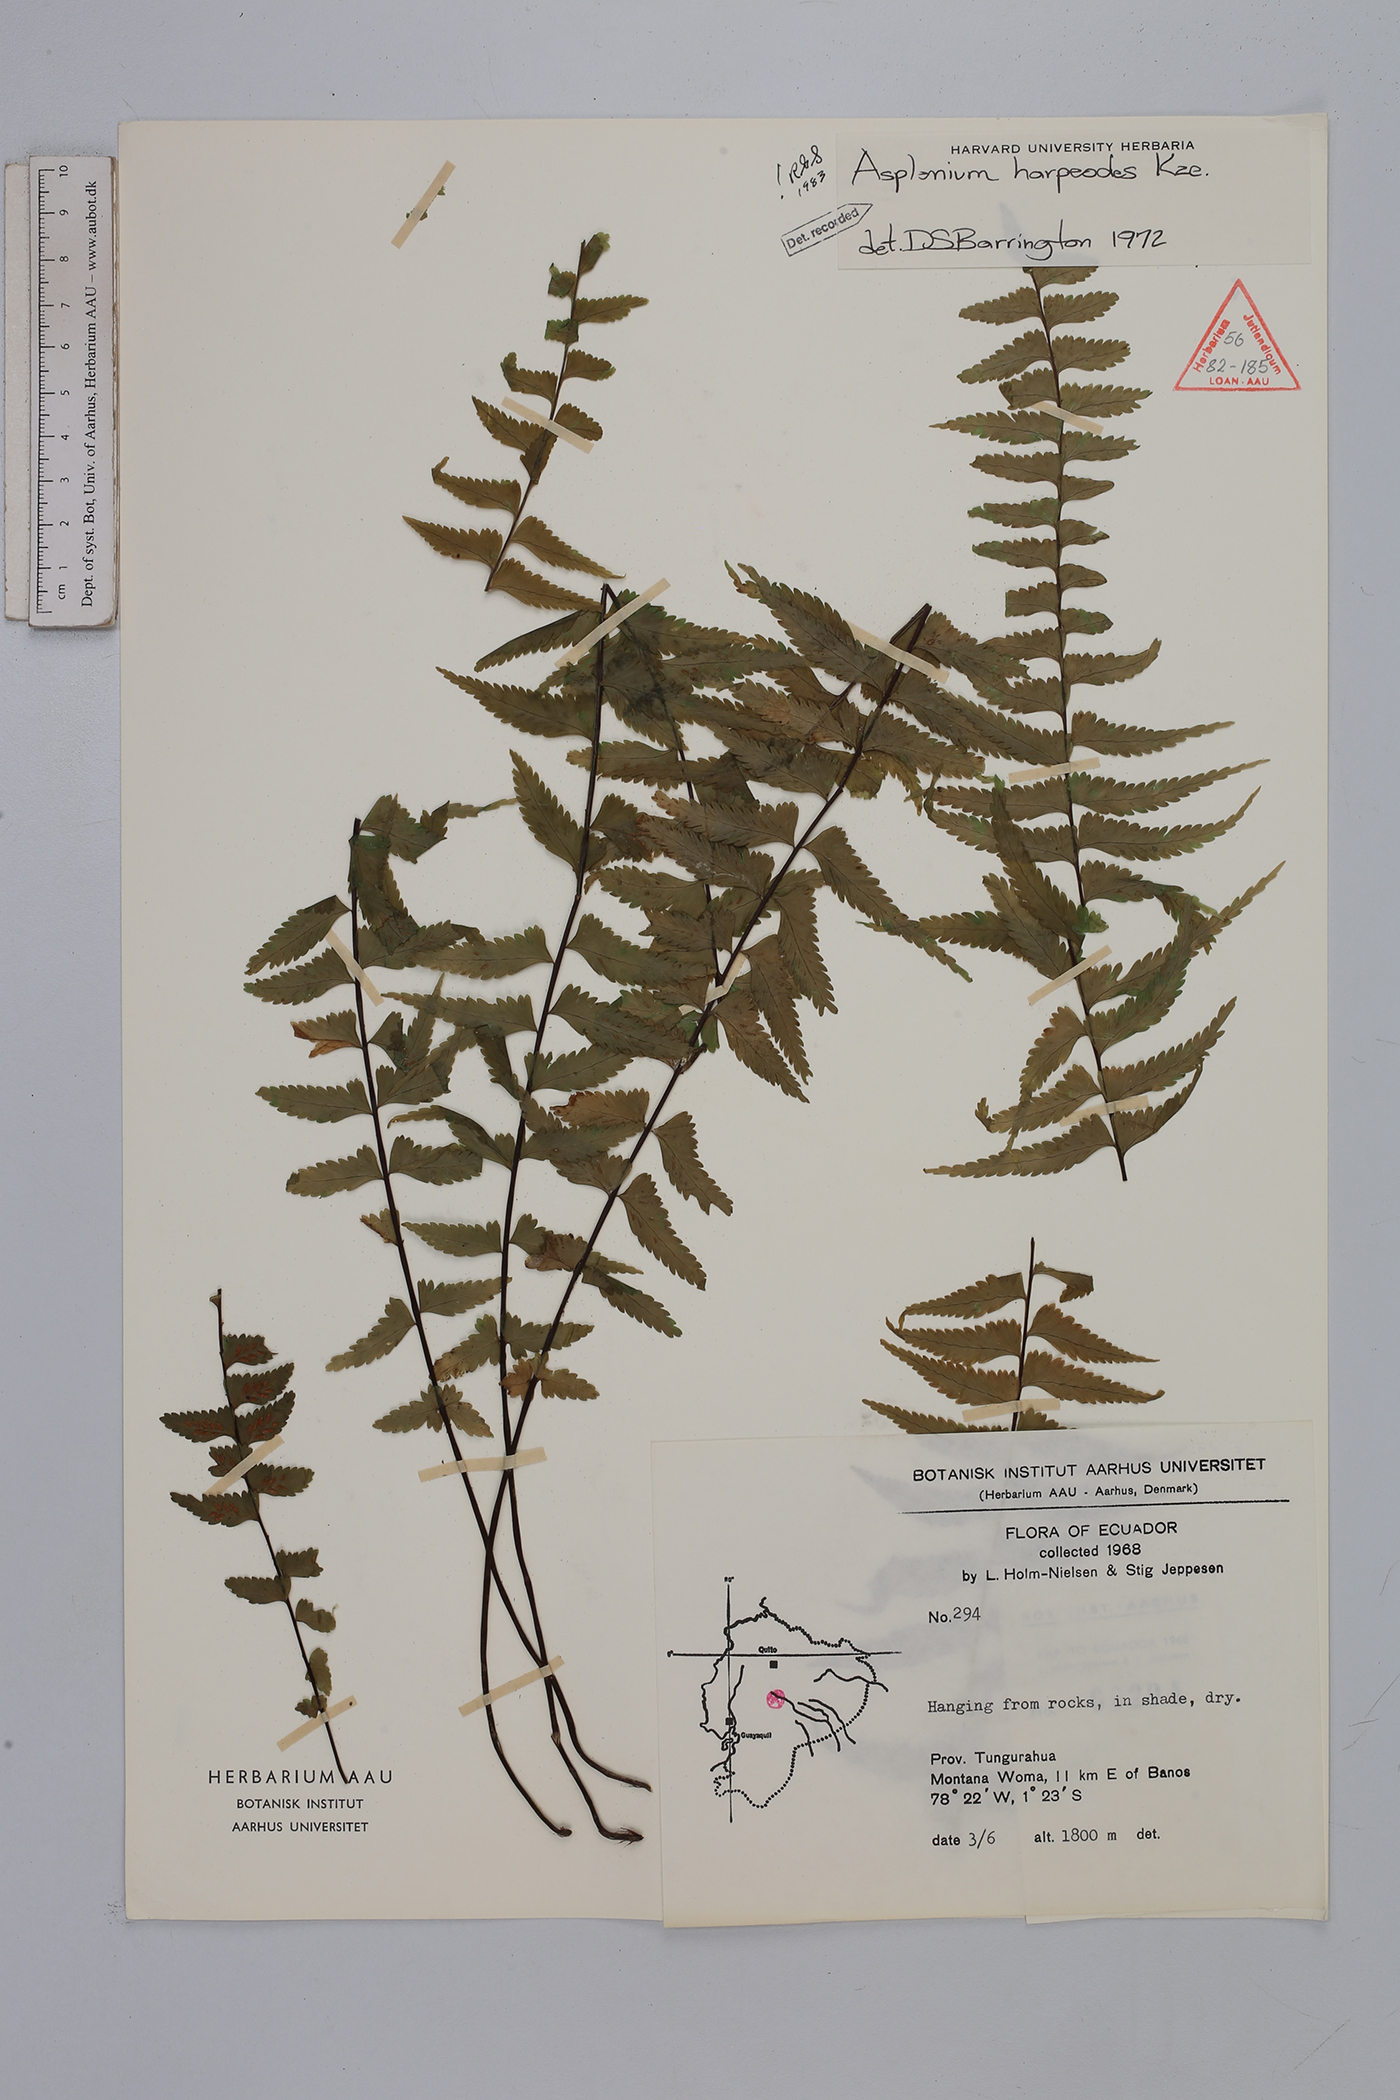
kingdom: Plantae
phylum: Tracheophyta
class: Polypodiopsida
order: Polypodiales
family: Aspleniaceae
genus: Asplenium
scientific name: Asplenium harpeodes
